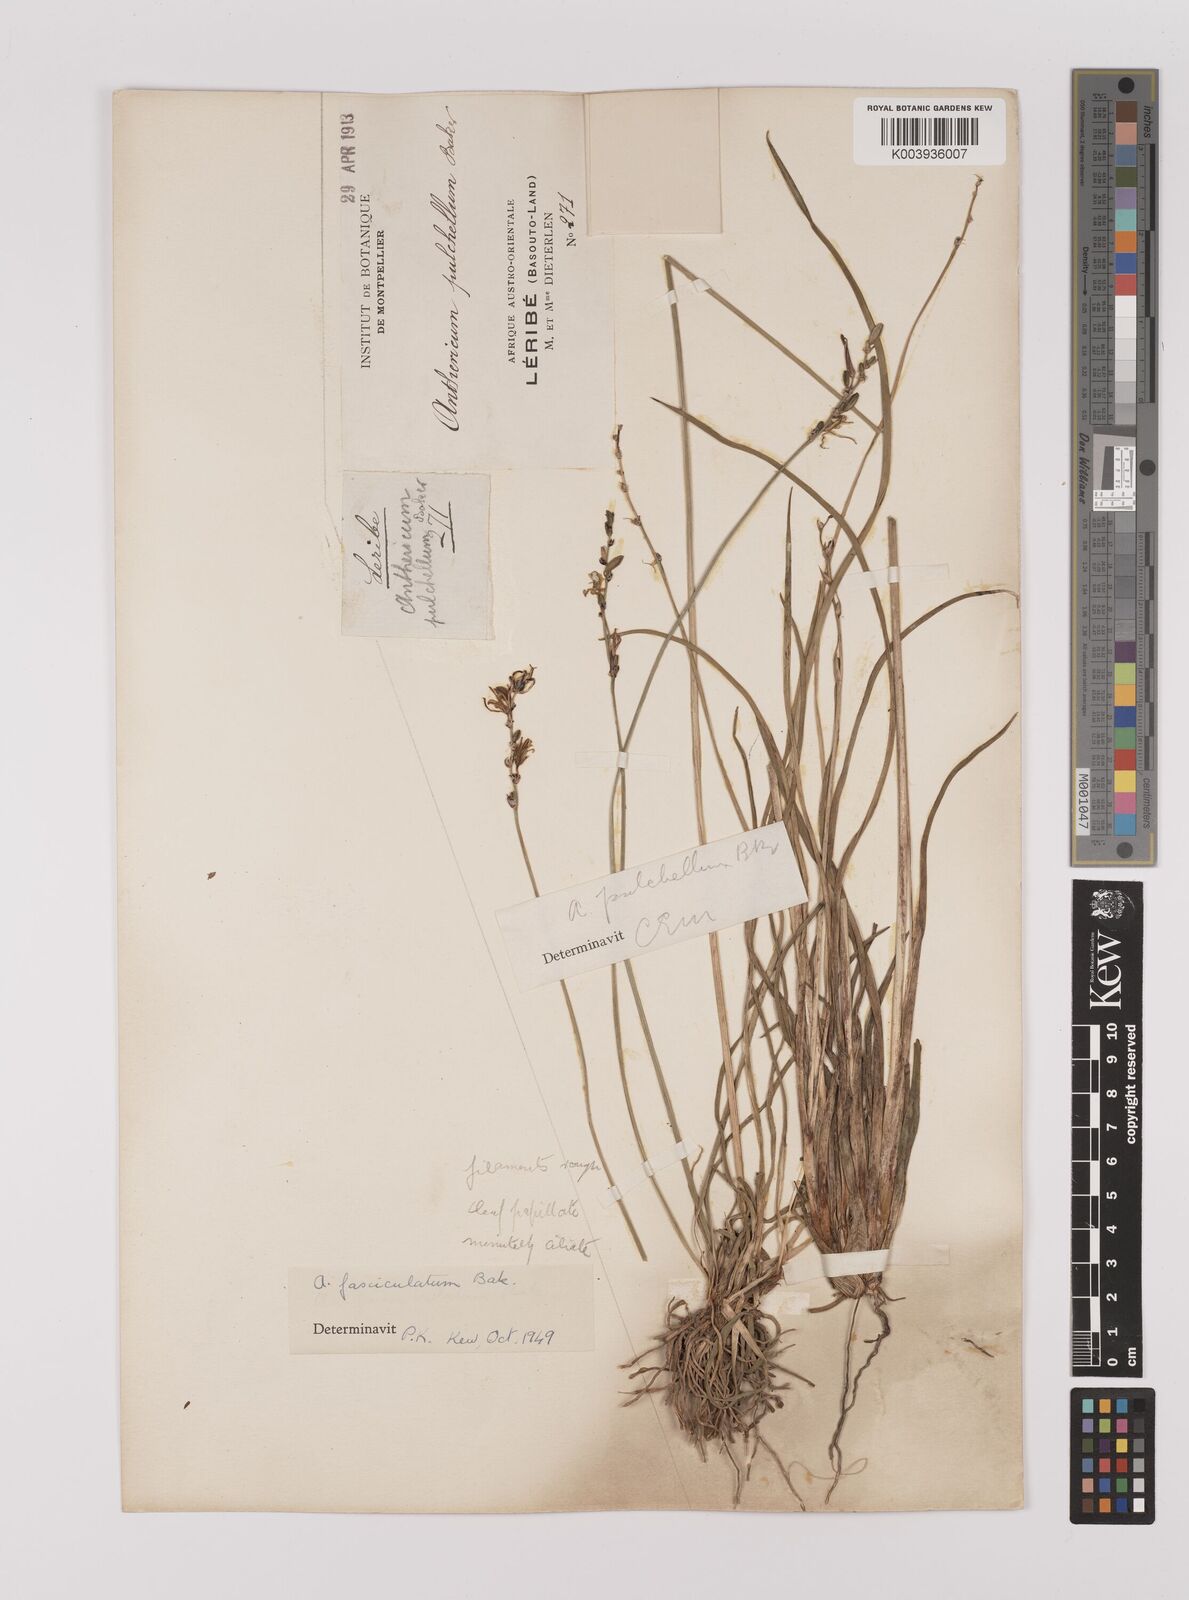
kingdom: Plantae
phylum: Tracheophyta
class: Liliopsida
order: Asparagales
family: Asparagaceae
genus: Chlorophytum
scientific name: Chlorophytum cooperi
